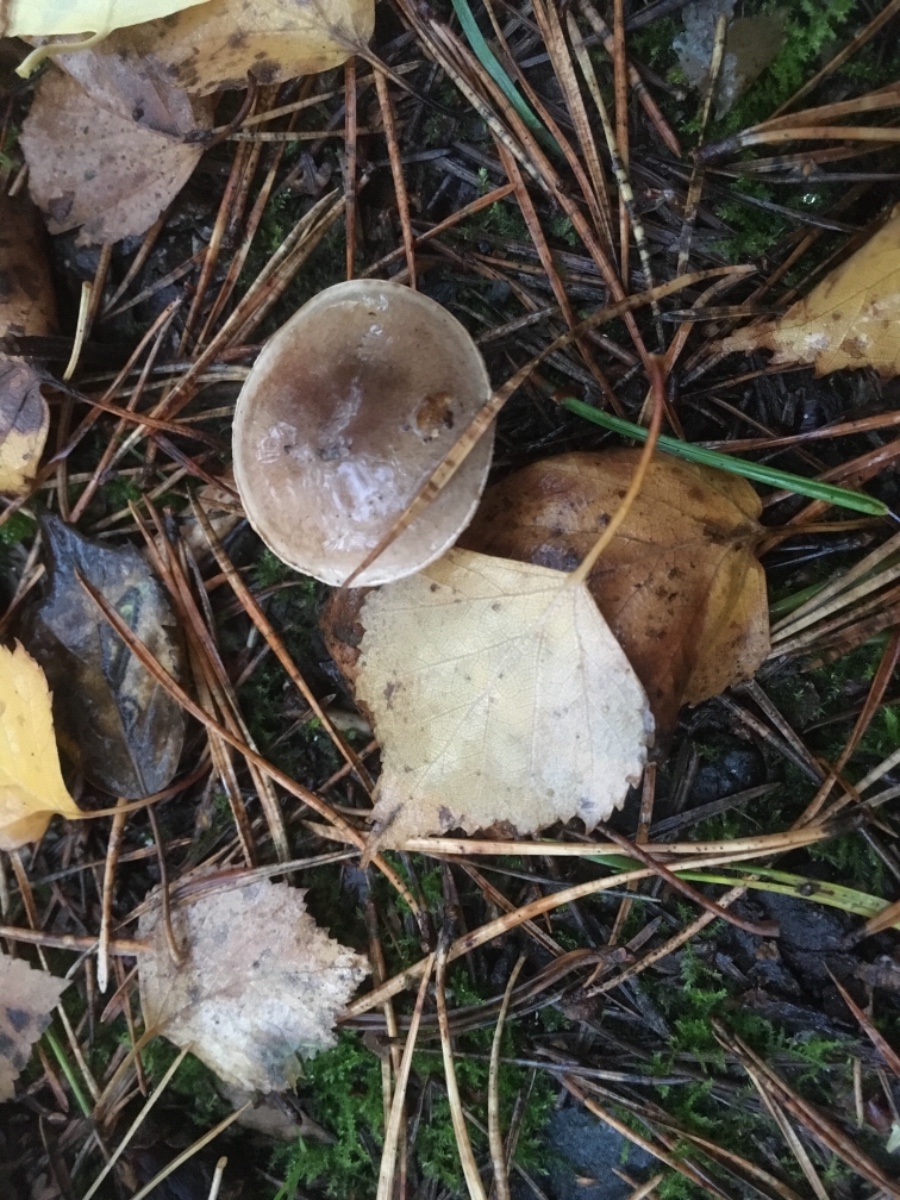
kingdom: Fungi
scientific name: Fungi
